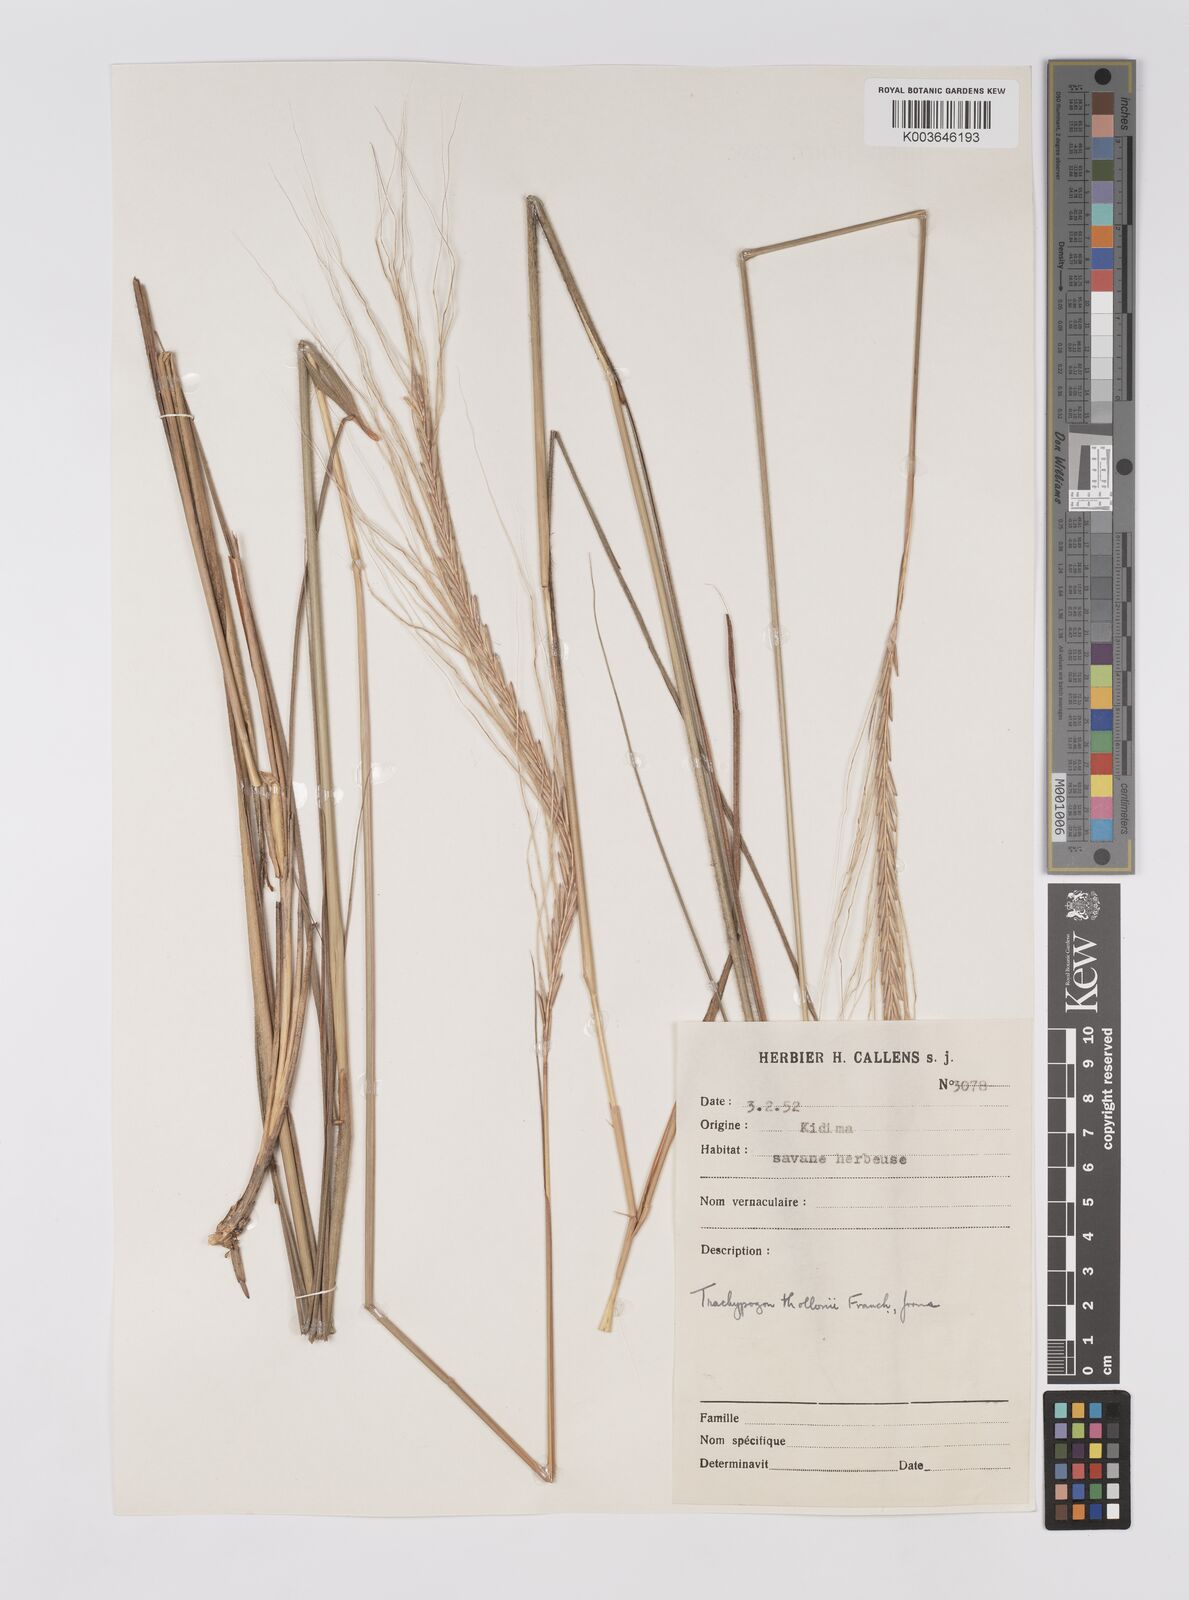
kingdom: Plantae
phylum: Tracheophyta
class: Liliopsida
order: Poales
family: Poaceae
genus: Trachypogon
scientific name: Trachypogon spicatus
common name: Crinkle-awn
